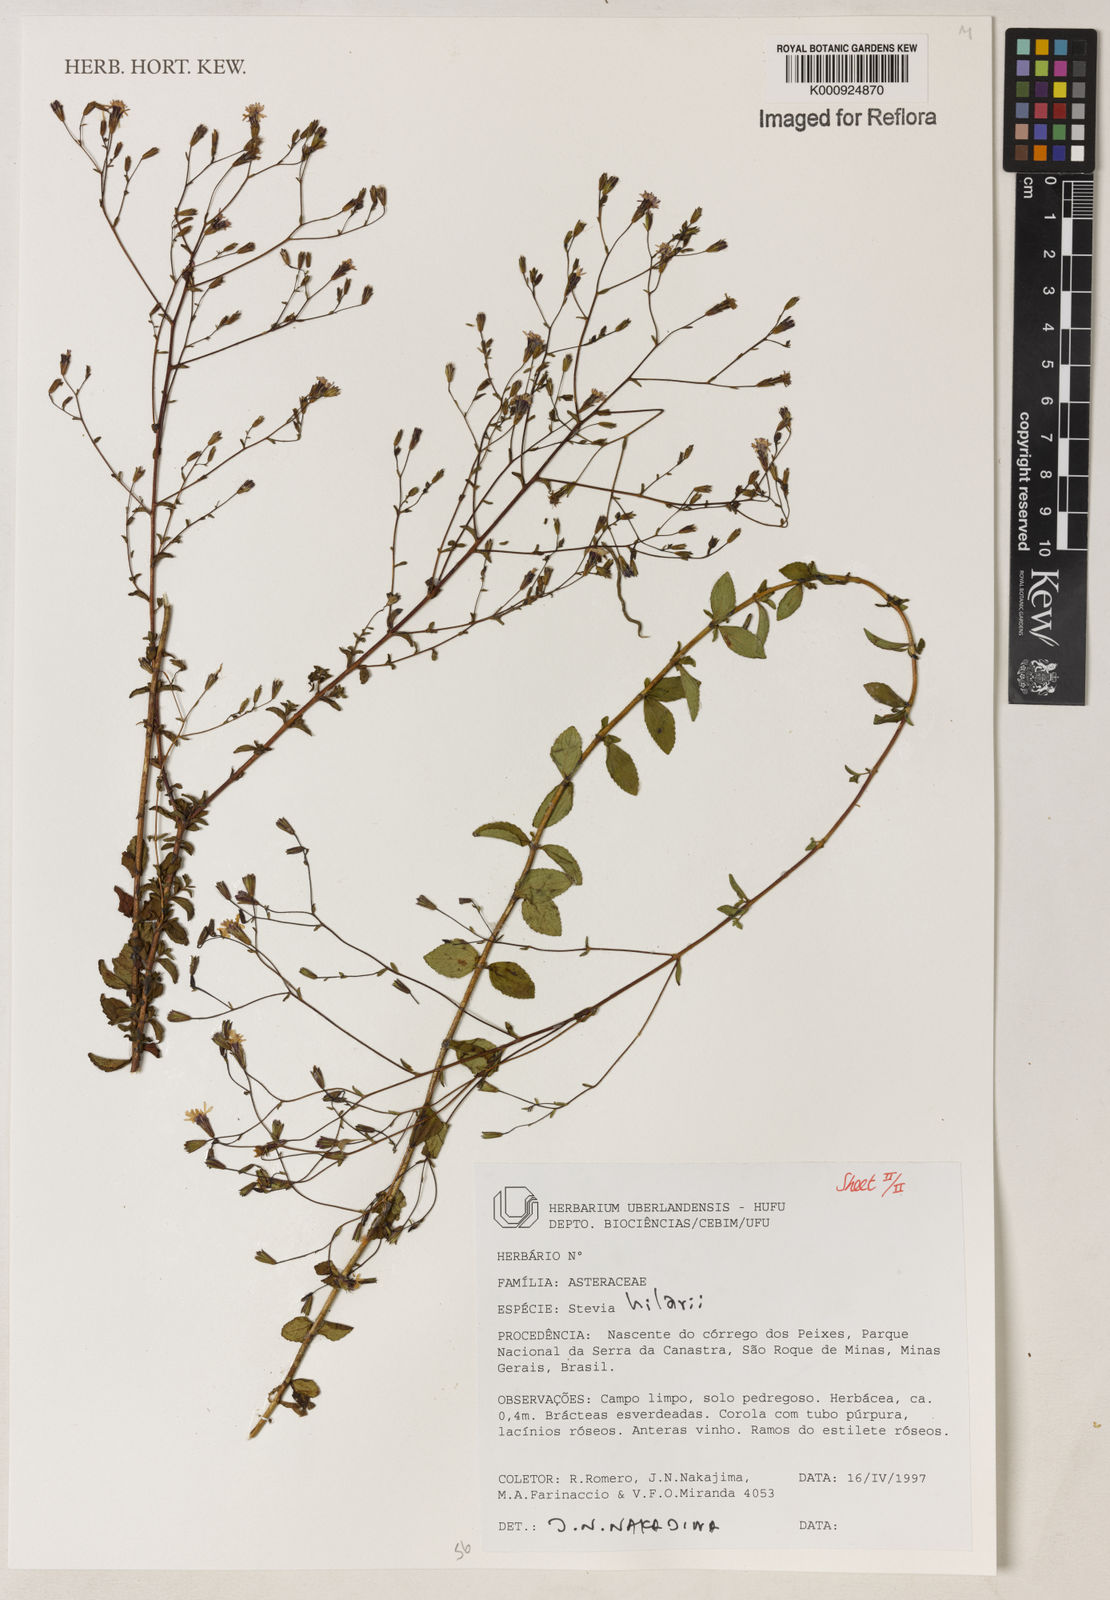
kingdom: Plantae
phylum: Tracheophyta
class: Magnoliopsida
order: Asterales
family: Asteraceae
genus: Stevia
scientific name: Stevia hilarii
